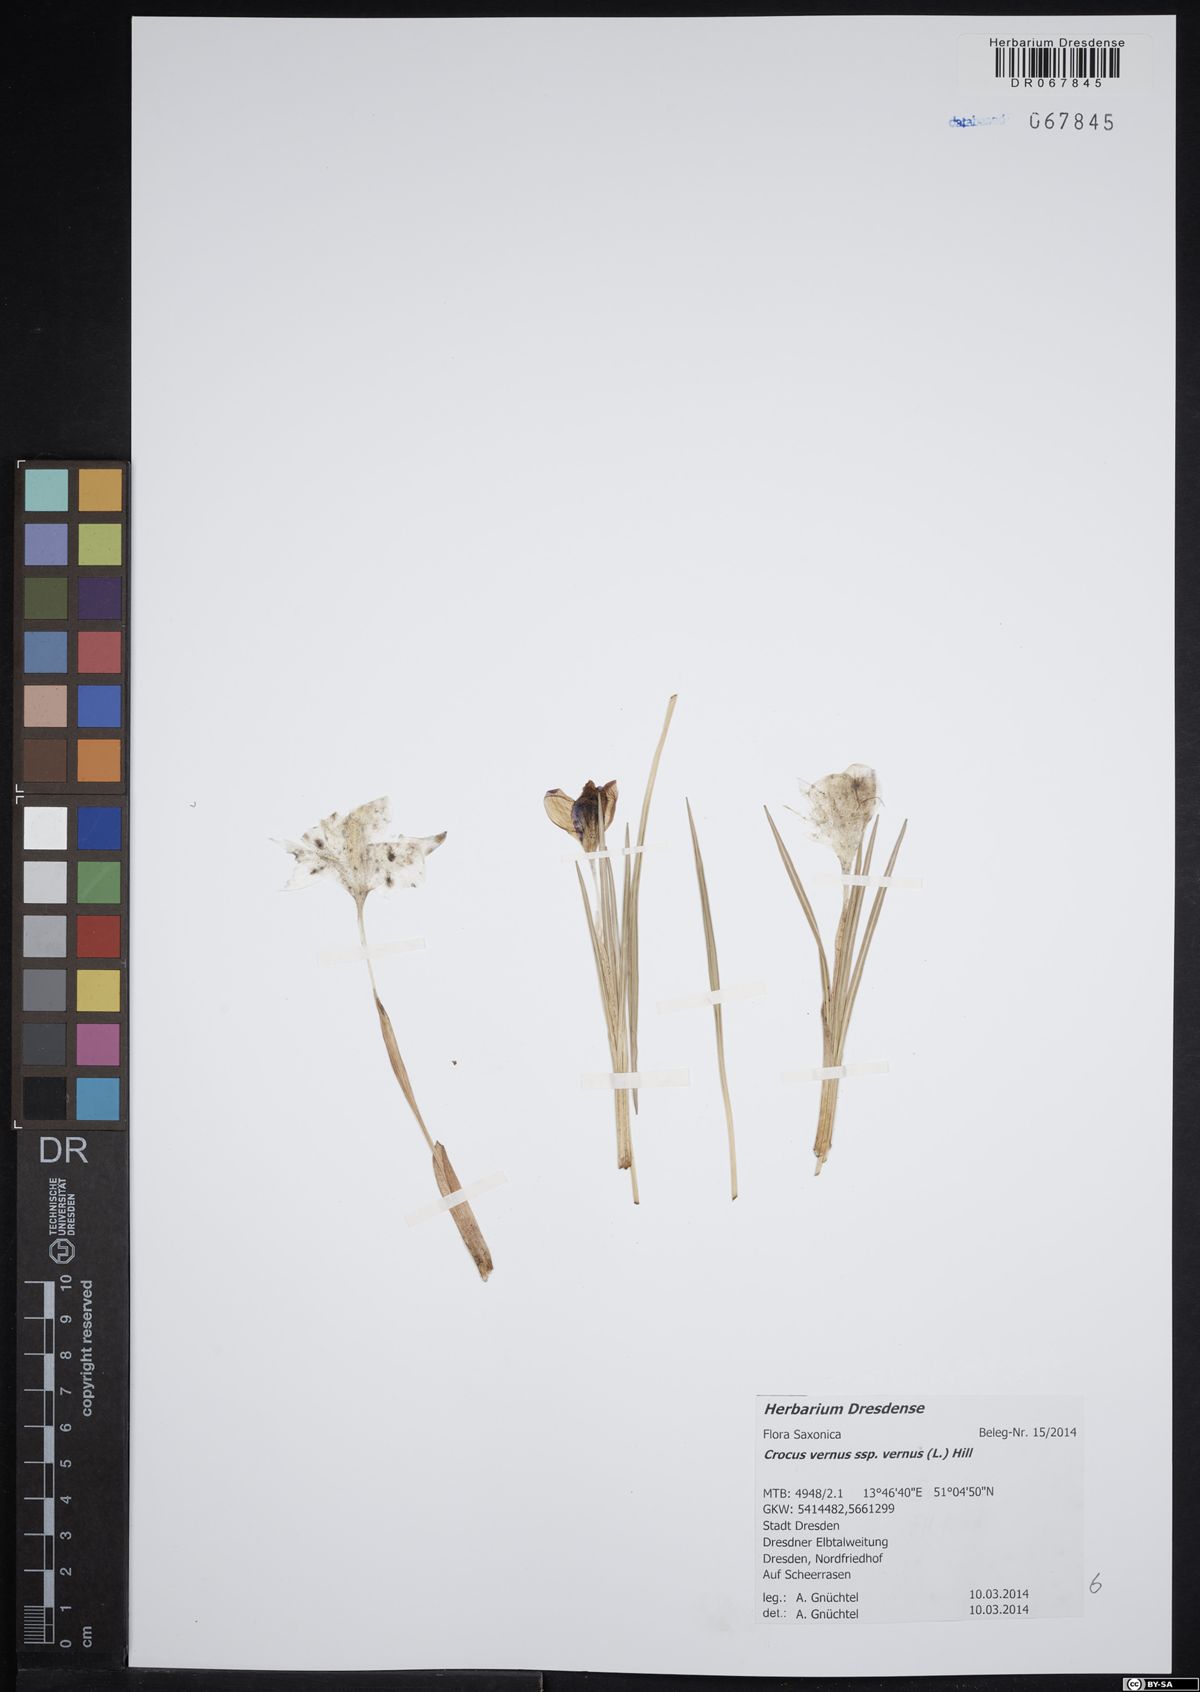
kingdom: Plantae
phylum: Tracheophyta
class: Liliopsida
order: Asparagales
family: Iridaceae
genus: Crocus
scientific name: Crocus vernus
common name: Spring crocus
